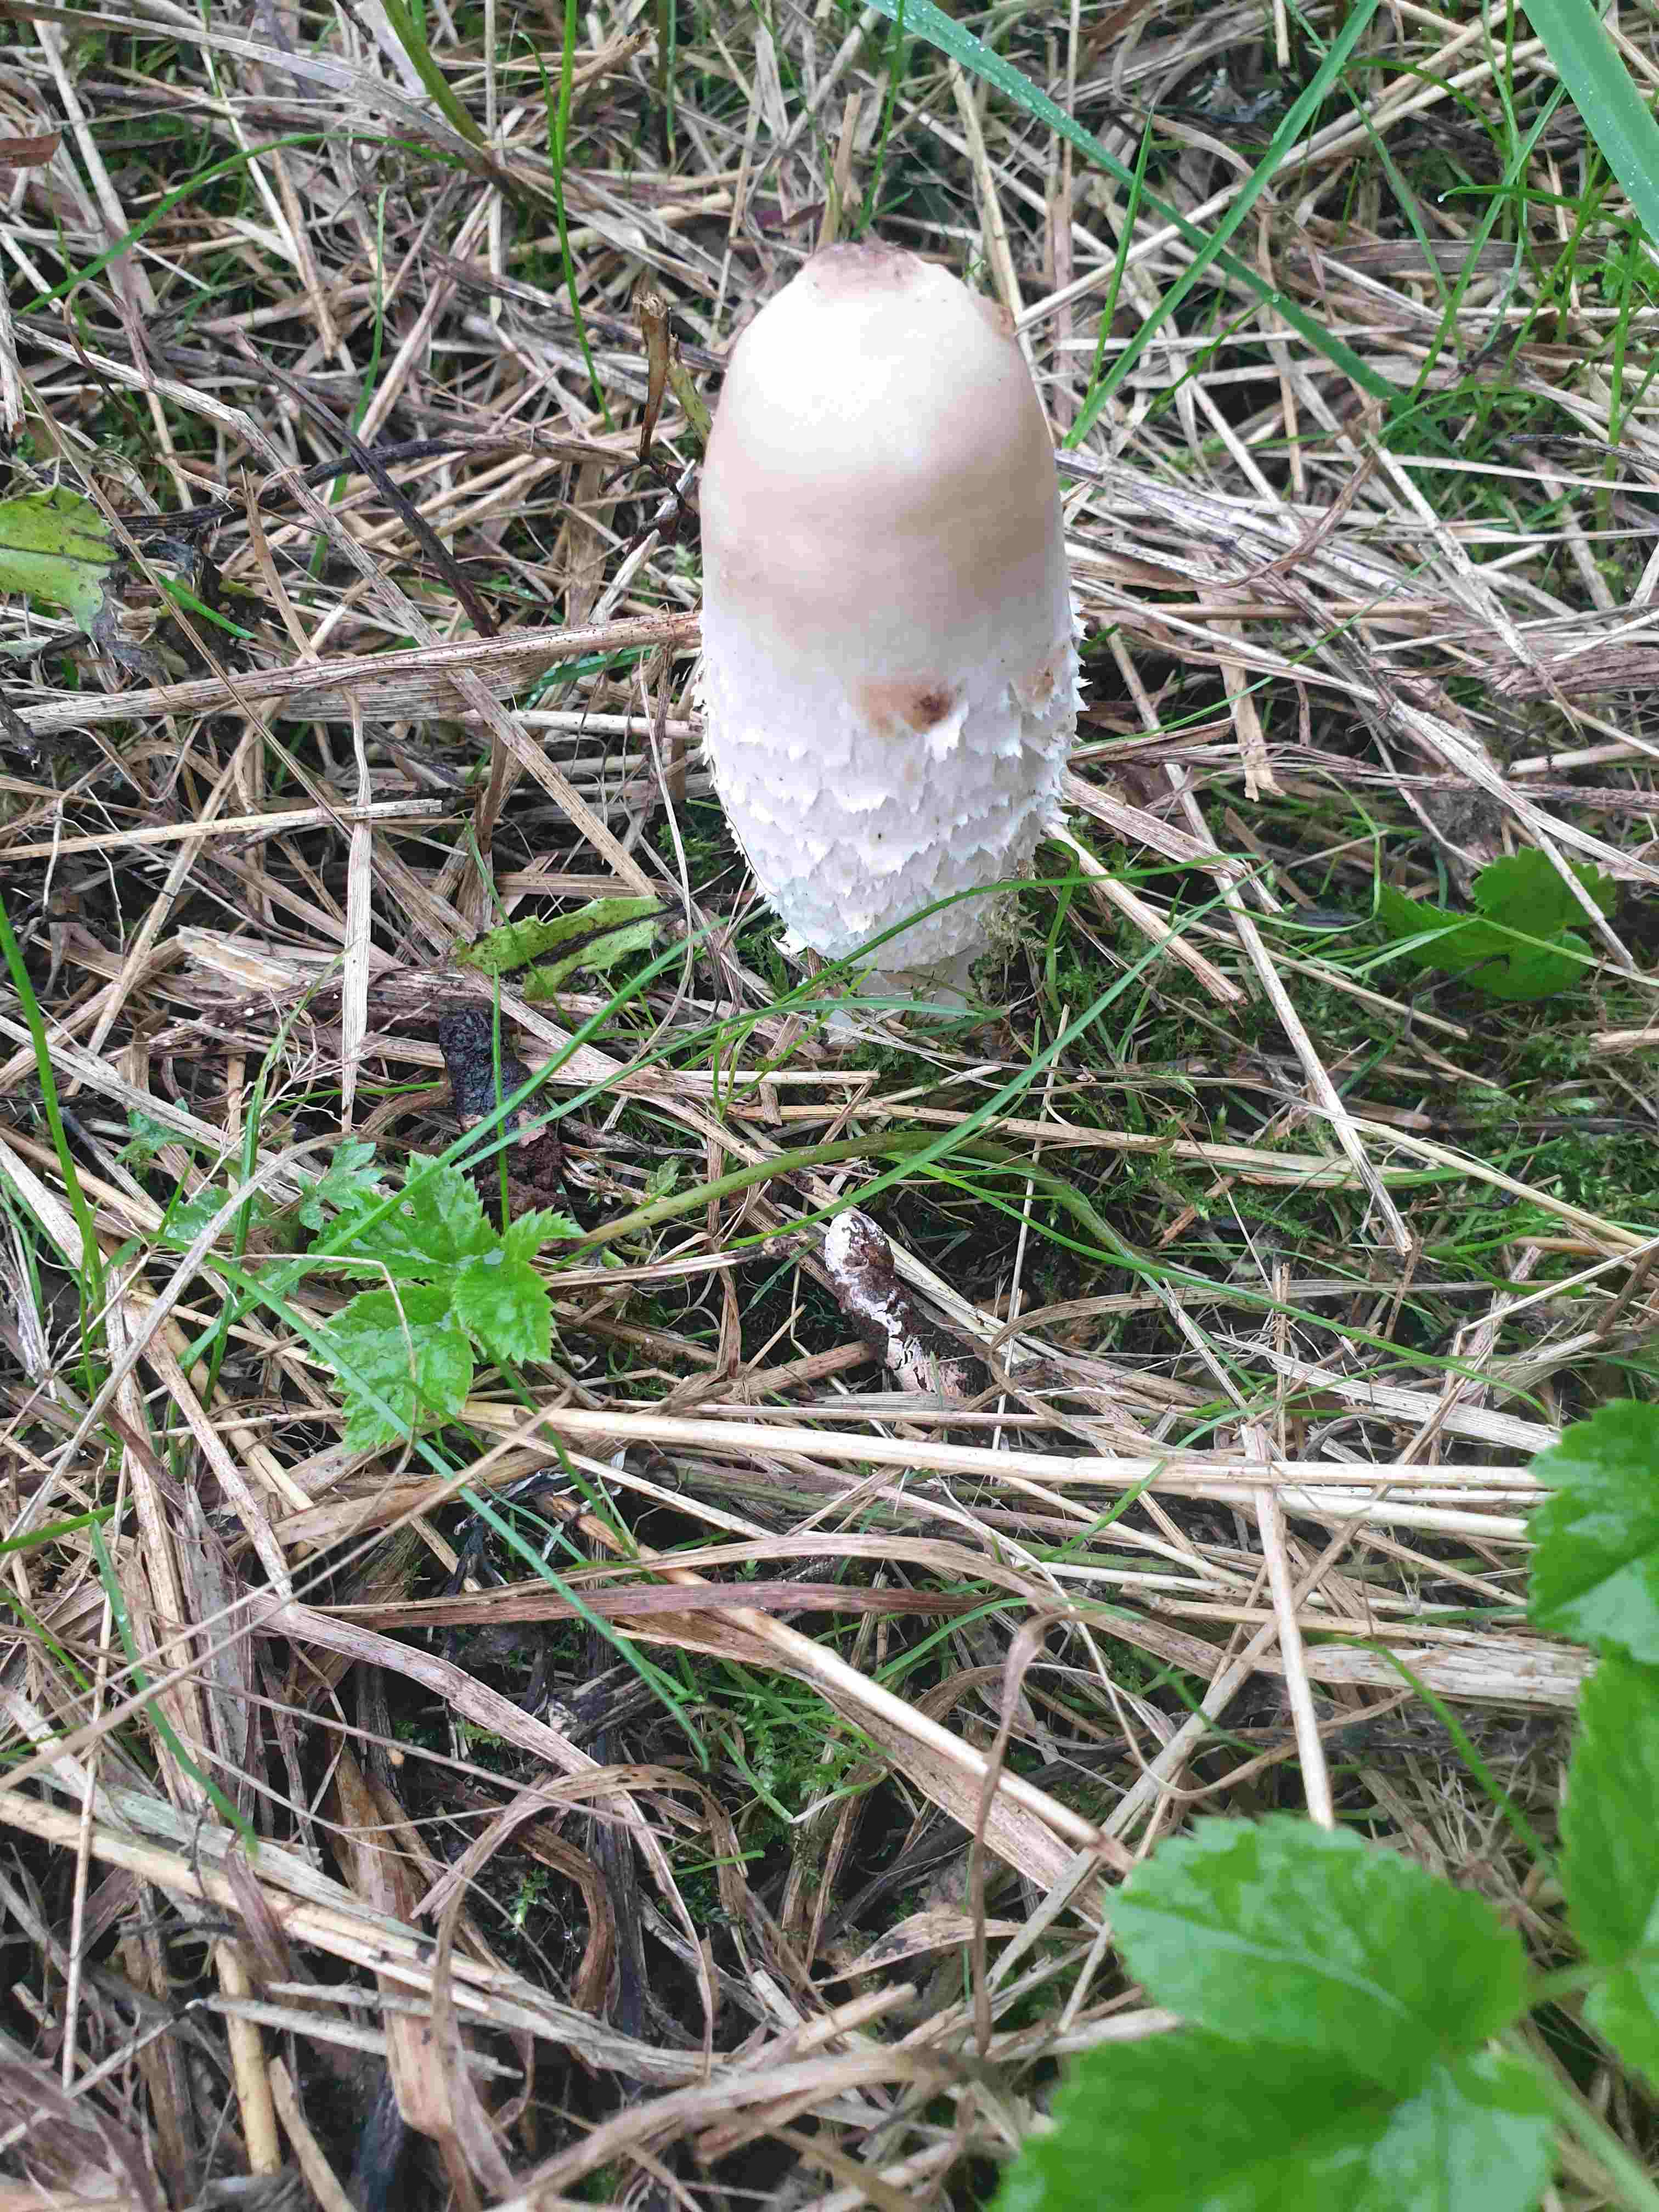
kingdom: Fungi
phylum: Basidiomycota
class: Agaricomycetes
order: Agaricales
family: Agaricaceae
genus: Coprinus
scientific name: Coprinus comatus
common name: stor parykhat
